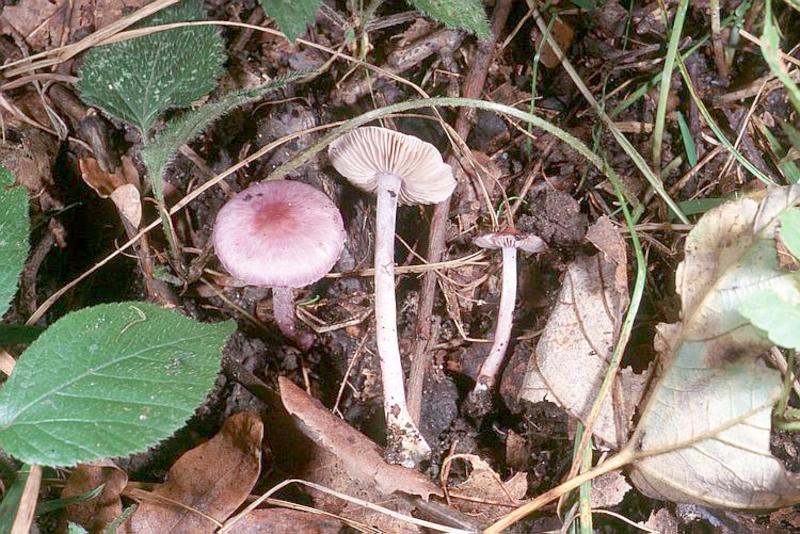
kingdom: Fungi
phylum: Basidiomycota
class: Agaricomycetes
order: Agaricales
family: Inocybaceae
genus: Inocybe
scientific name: Inocybe geophylla
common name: White fibrecap
